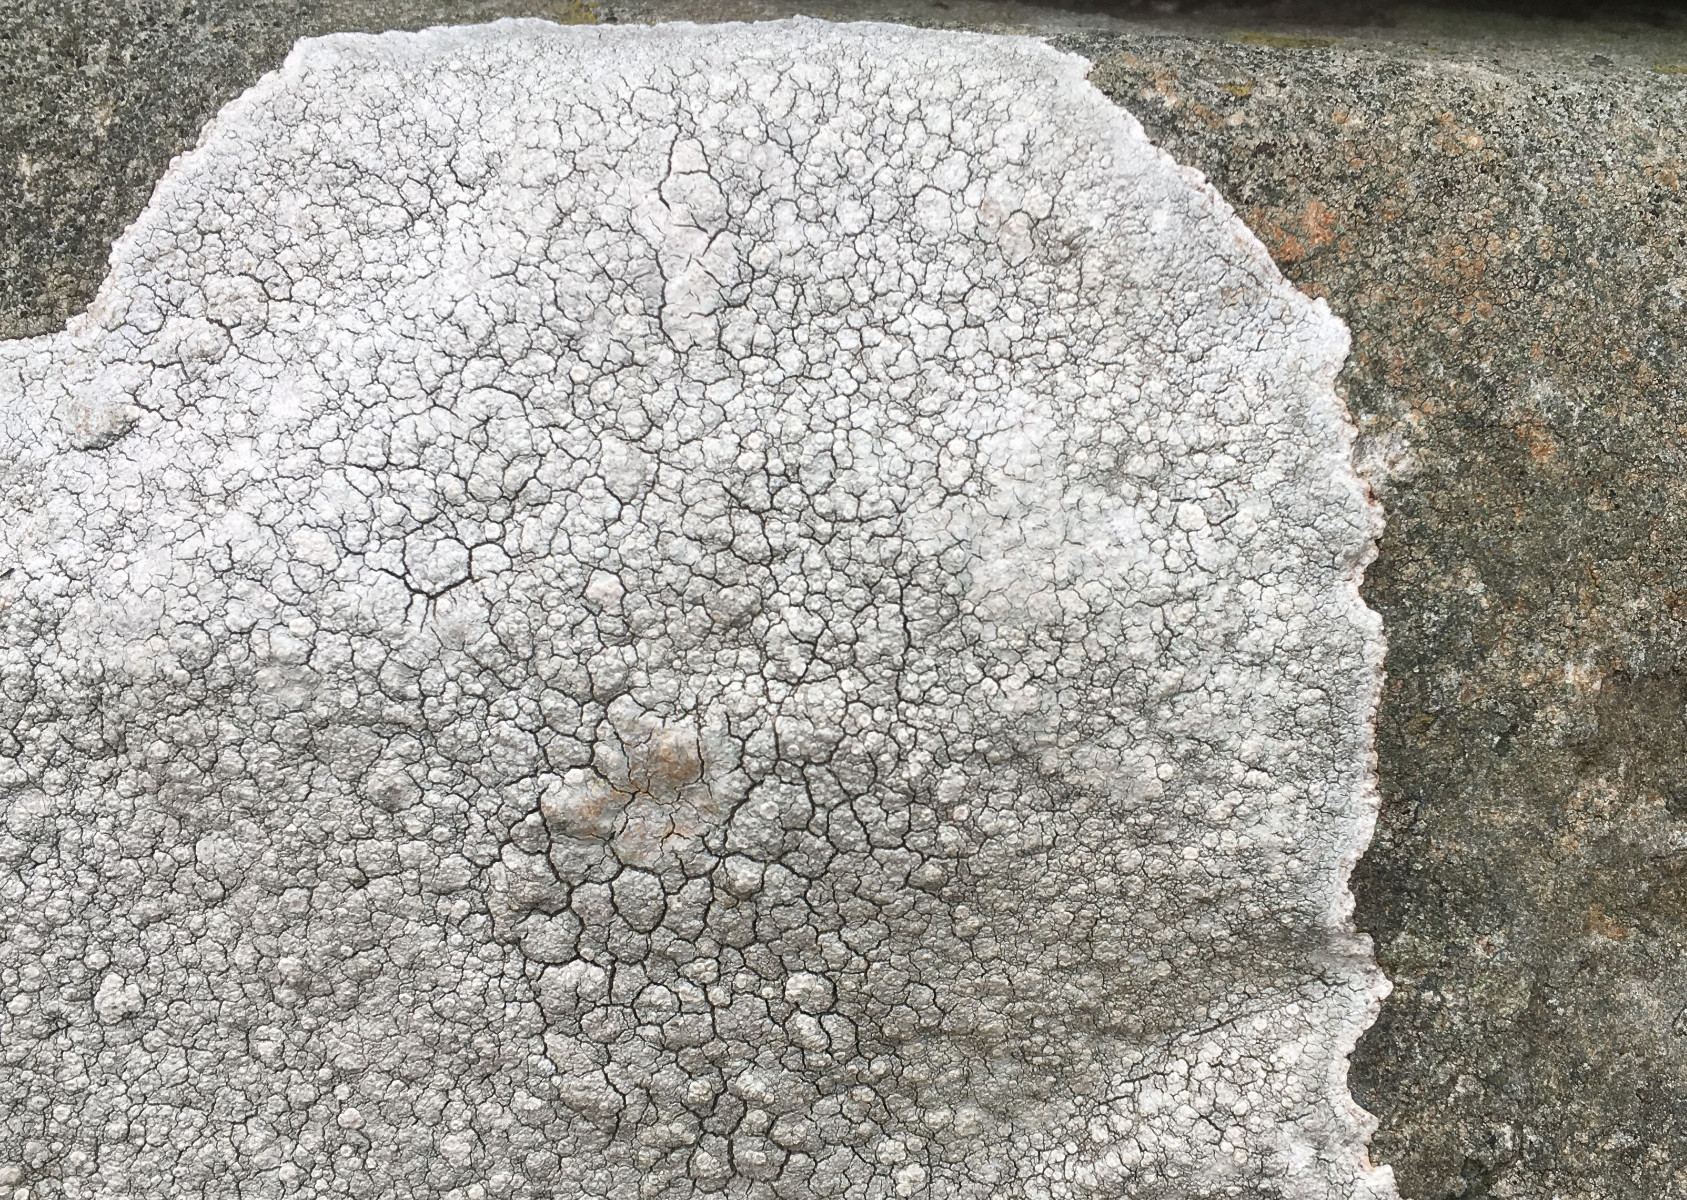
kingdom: Fungi
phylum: Ascomycota
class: Lecanoromycetes
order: Lecanorales
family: Lecanoraceae
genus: Glaucomaria
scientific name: Glaucomaria rupicola
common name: stengærde-kantskivelav
